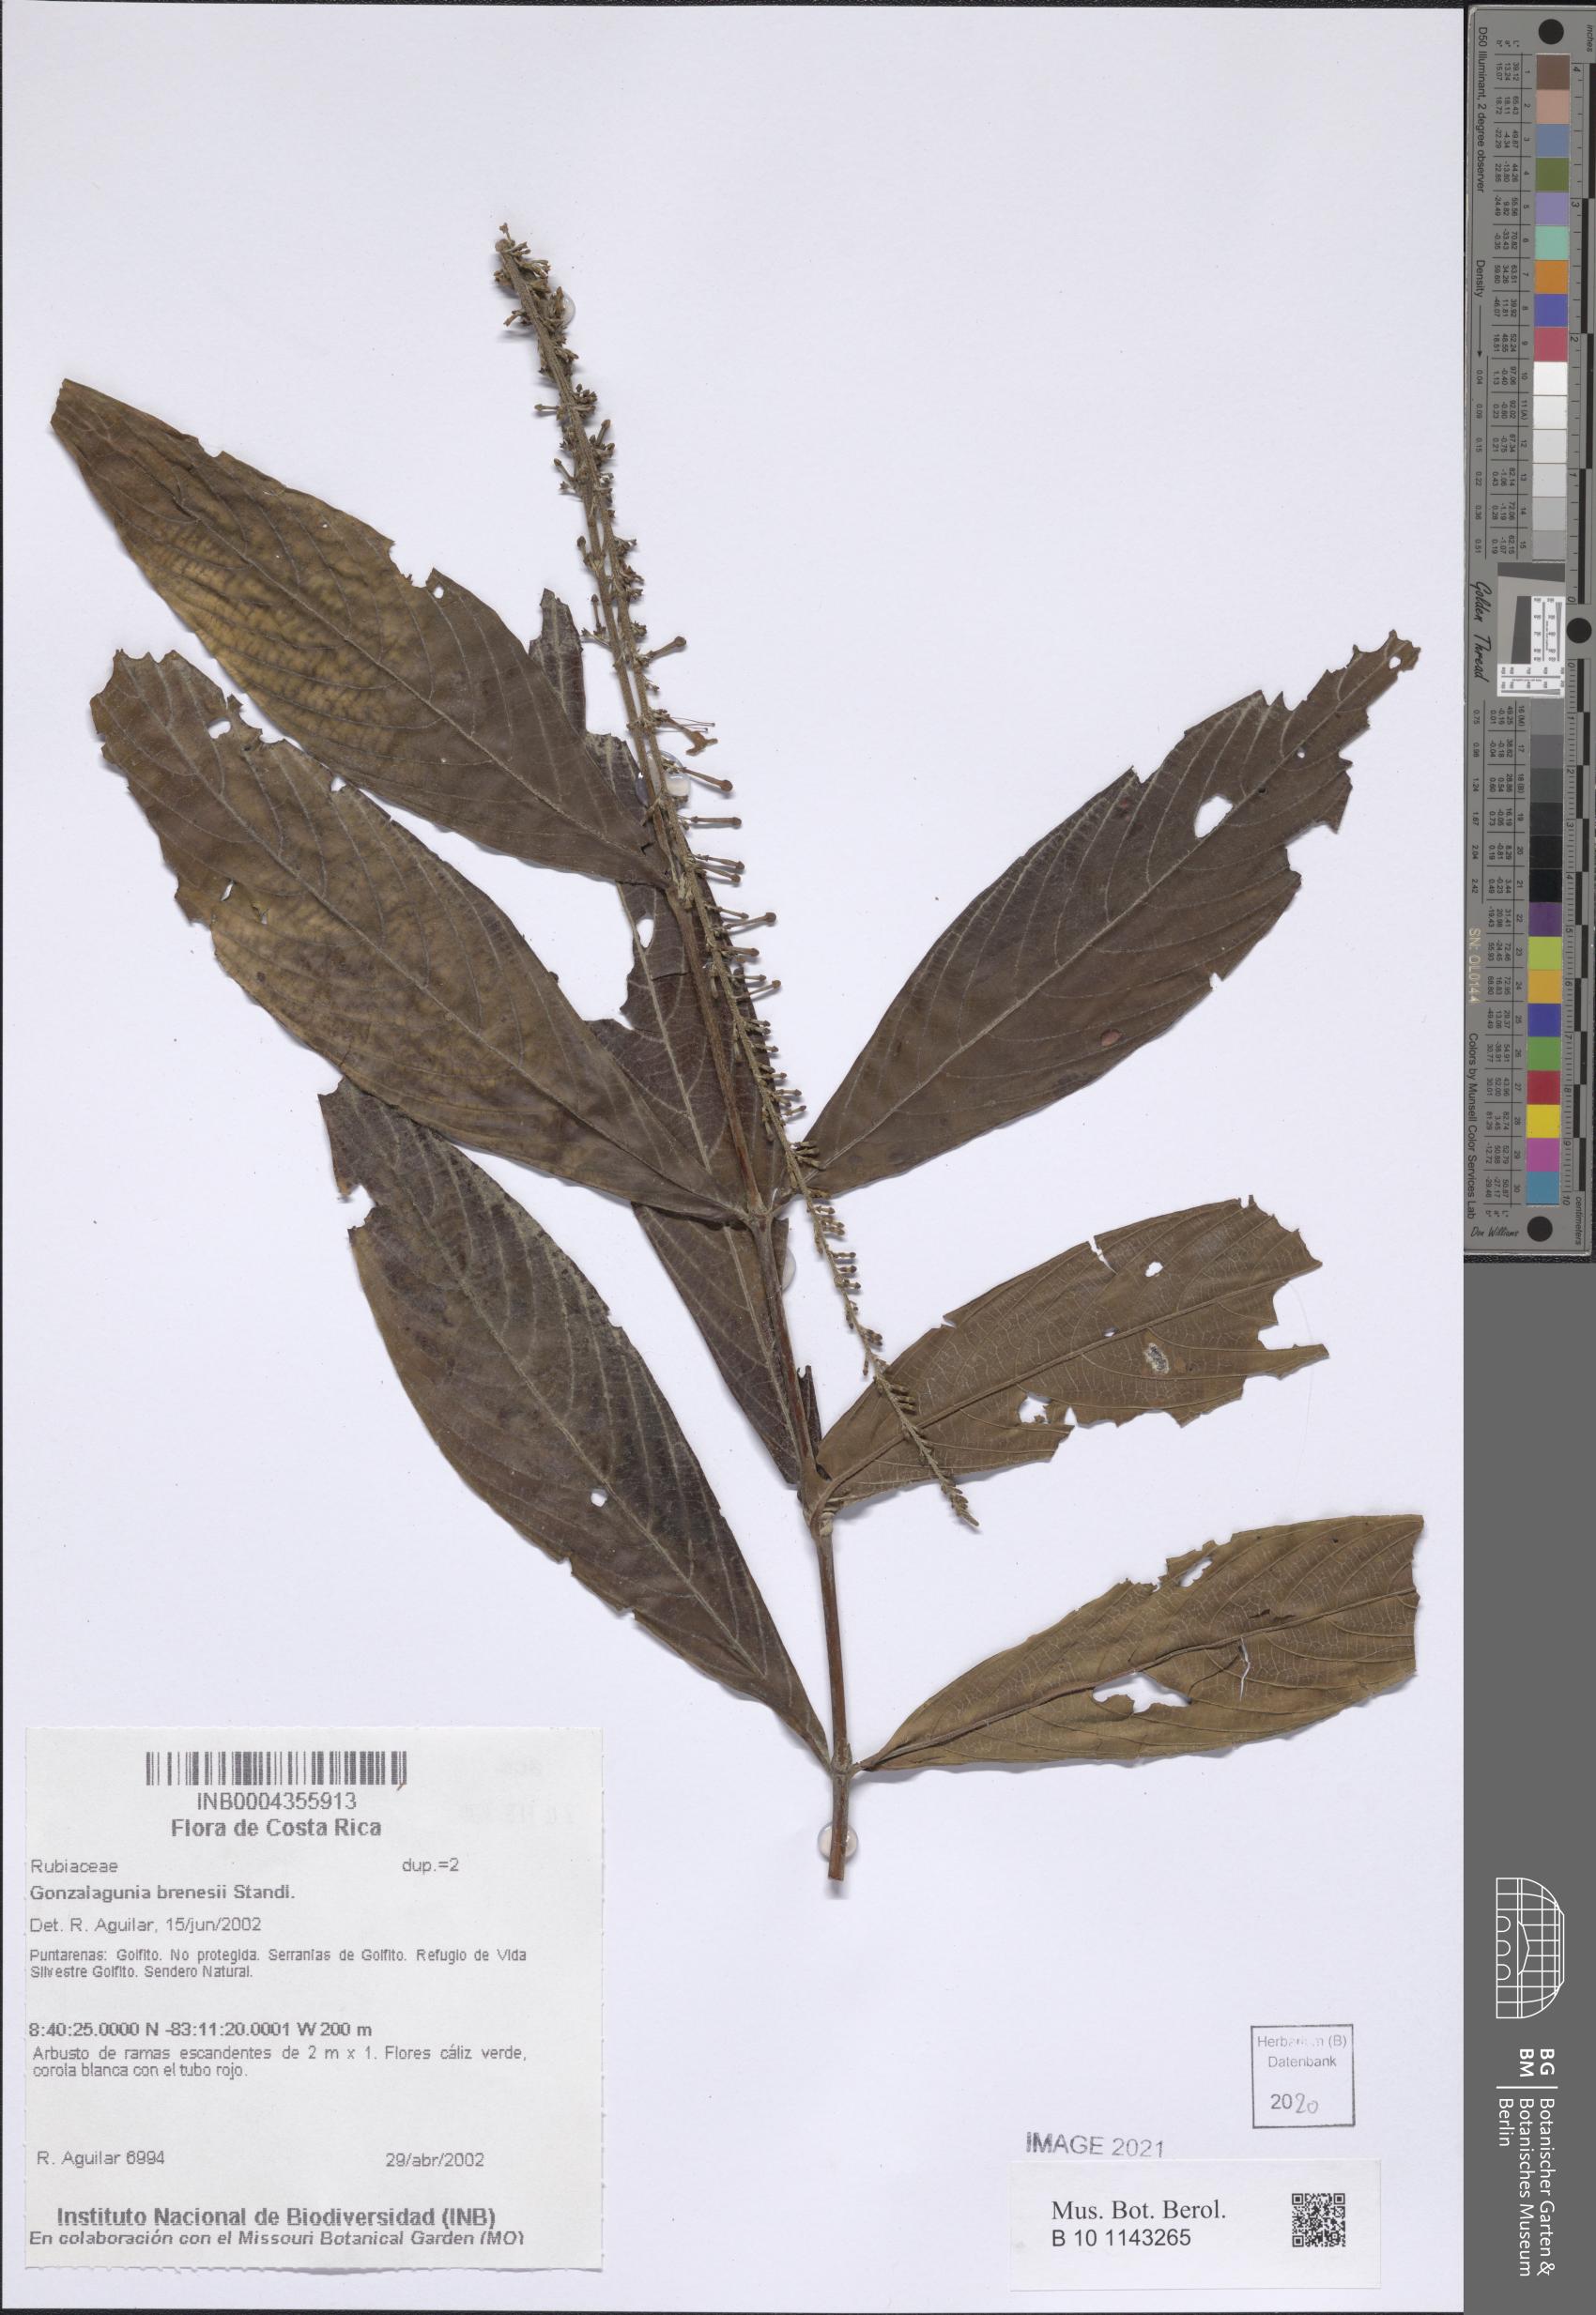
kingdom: Plantae
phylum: Tracheophyta
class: Magnoliopsida
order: Gentianales
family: Rubiaceae
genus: Gonzalagunia
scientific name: Gonzalagunia brenesii
